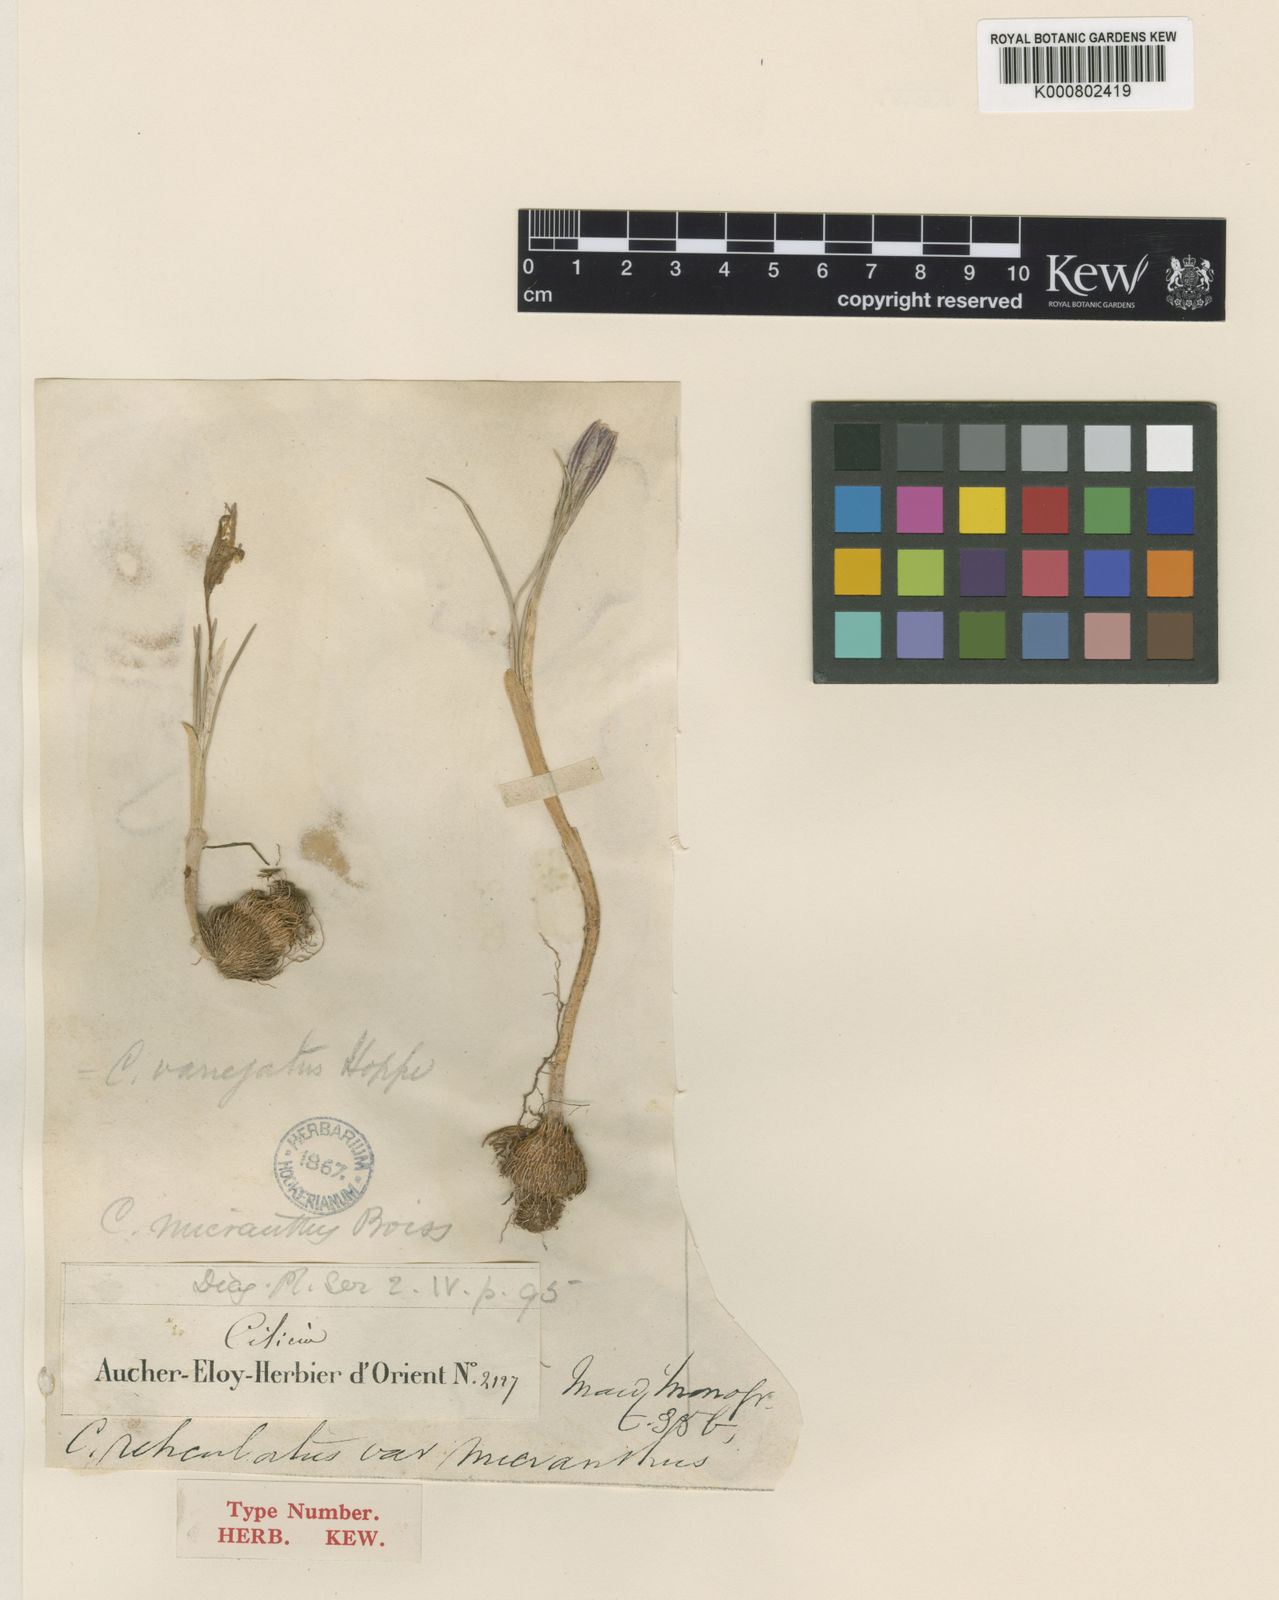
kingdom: Plantae
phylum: Tracheophyta
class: Liliopsida
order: Asparagales
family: Iridaceae
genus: Crocus
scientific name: Crocus reticulatus
